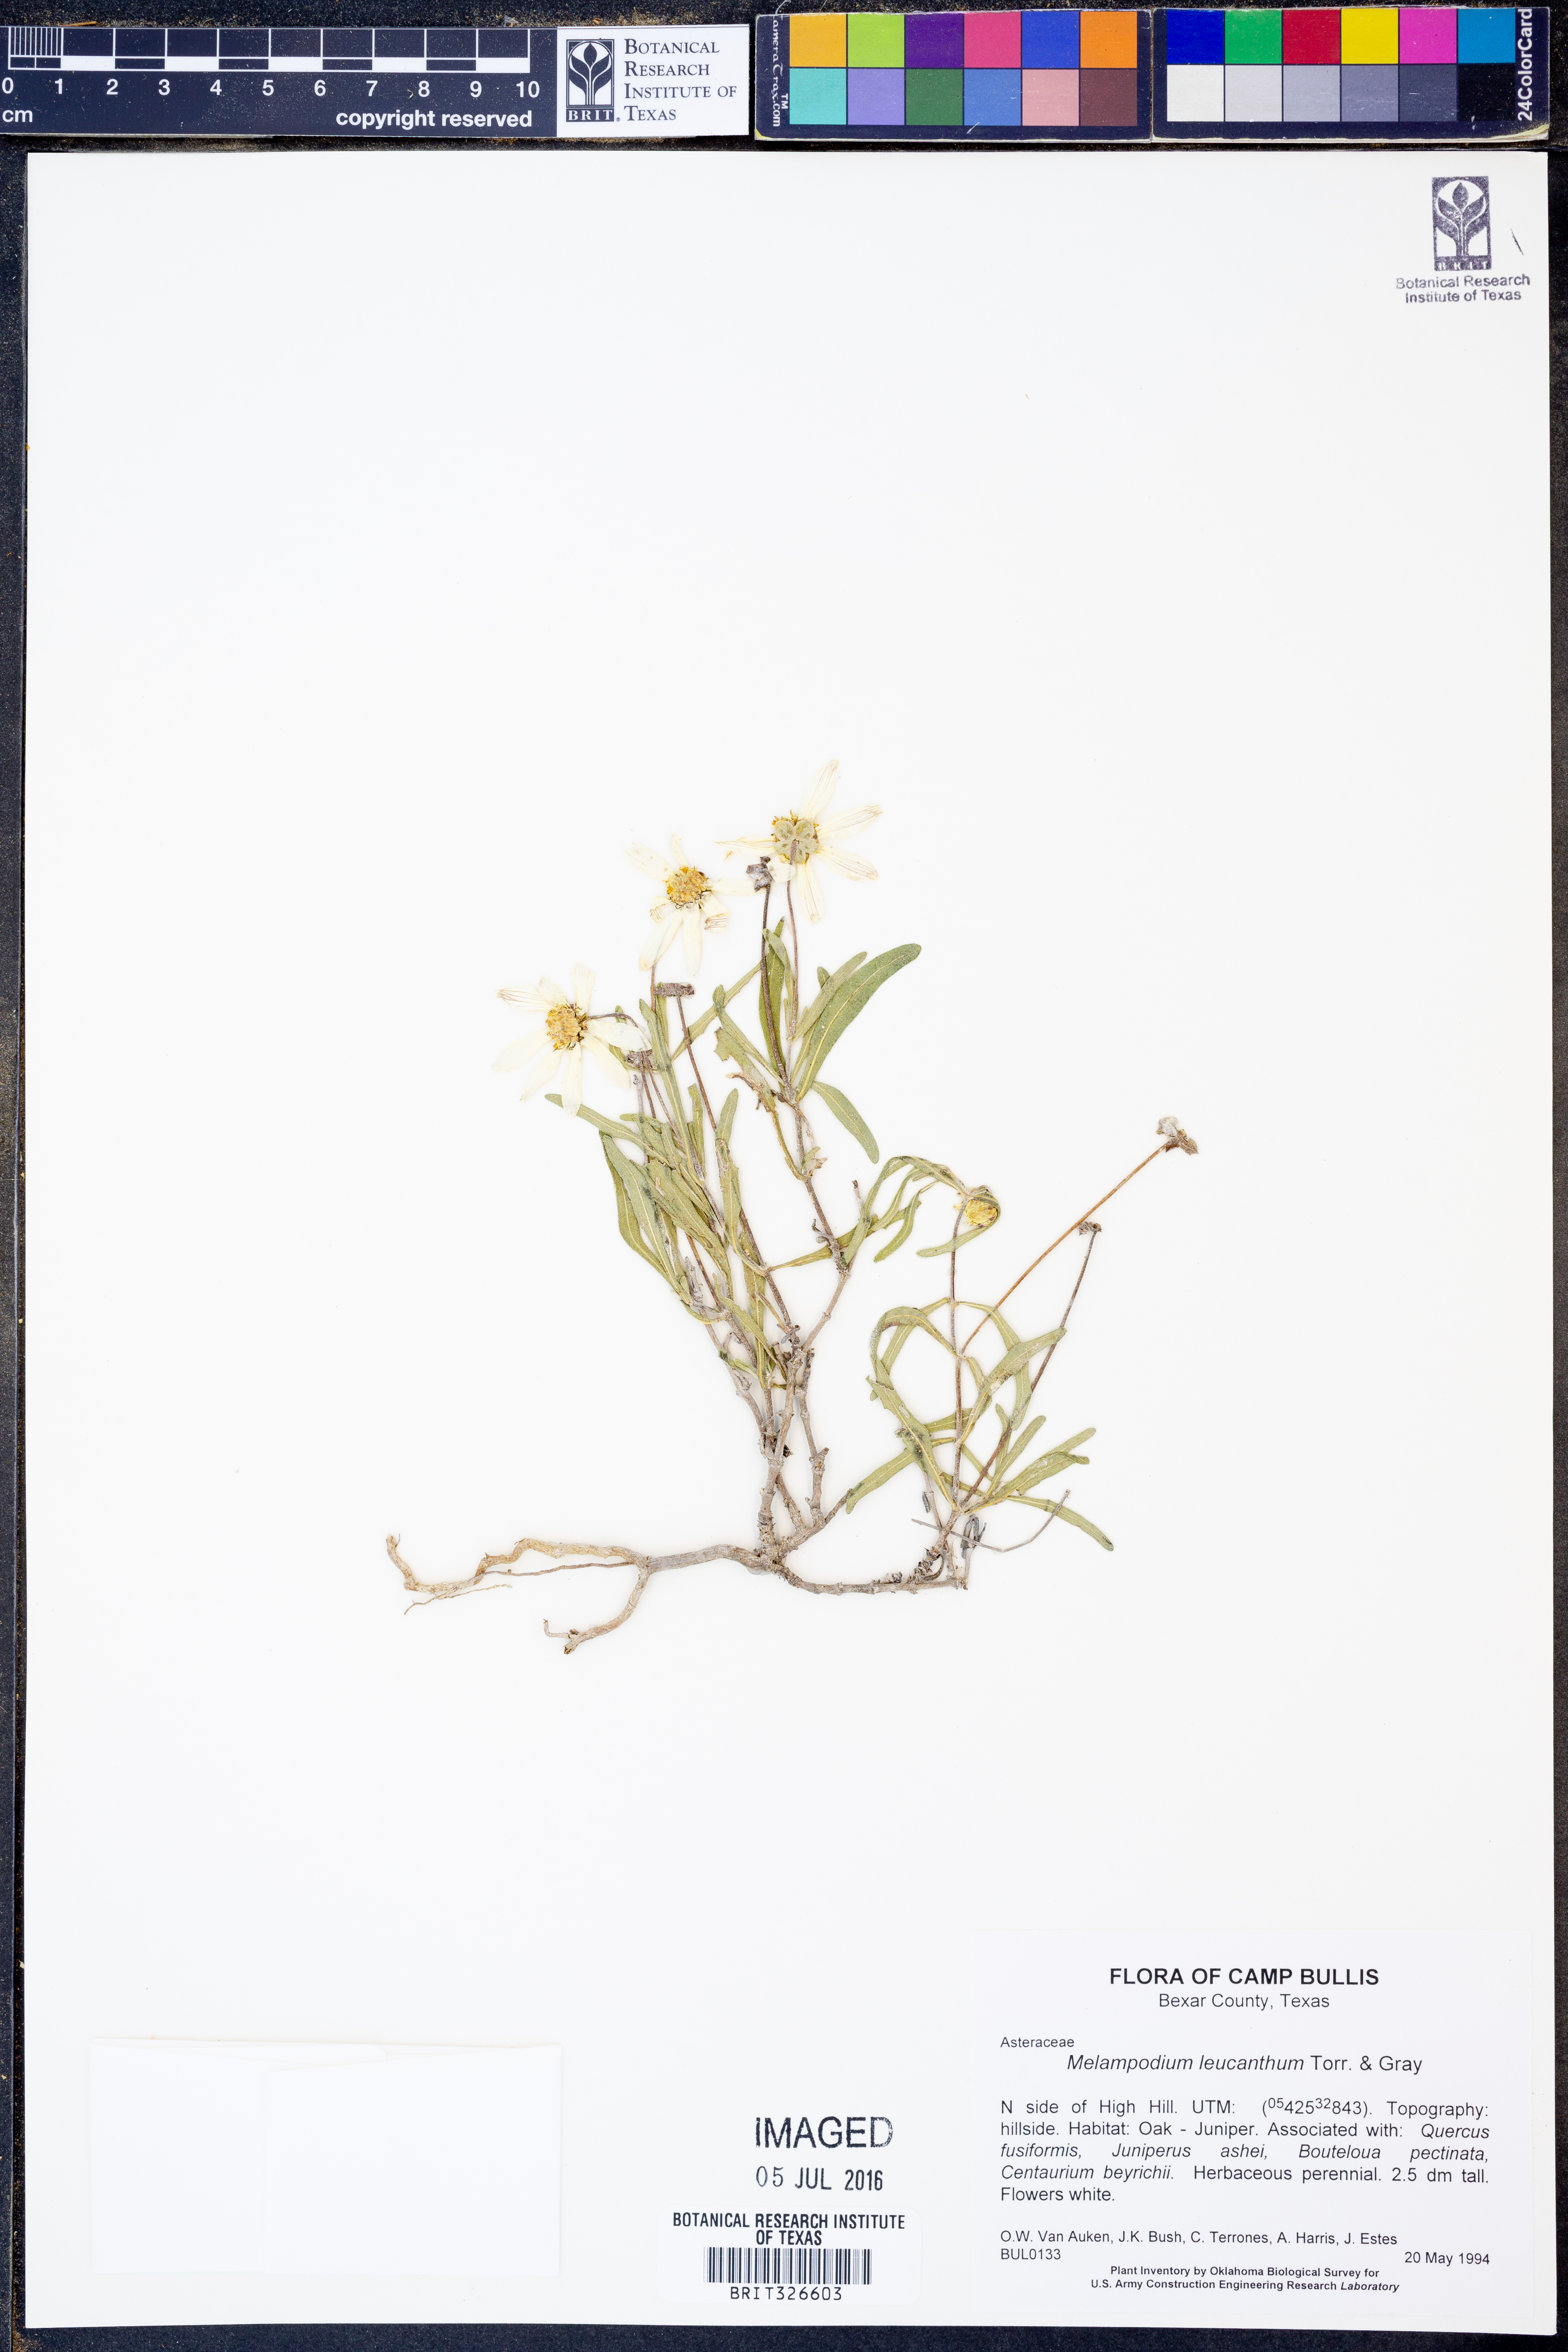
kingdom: Plantae
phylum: Tracheophyta
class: Magnoliopsida
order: Asterales
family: Asteraceae
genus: Melampodium
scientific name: Melampodium leucanthum
